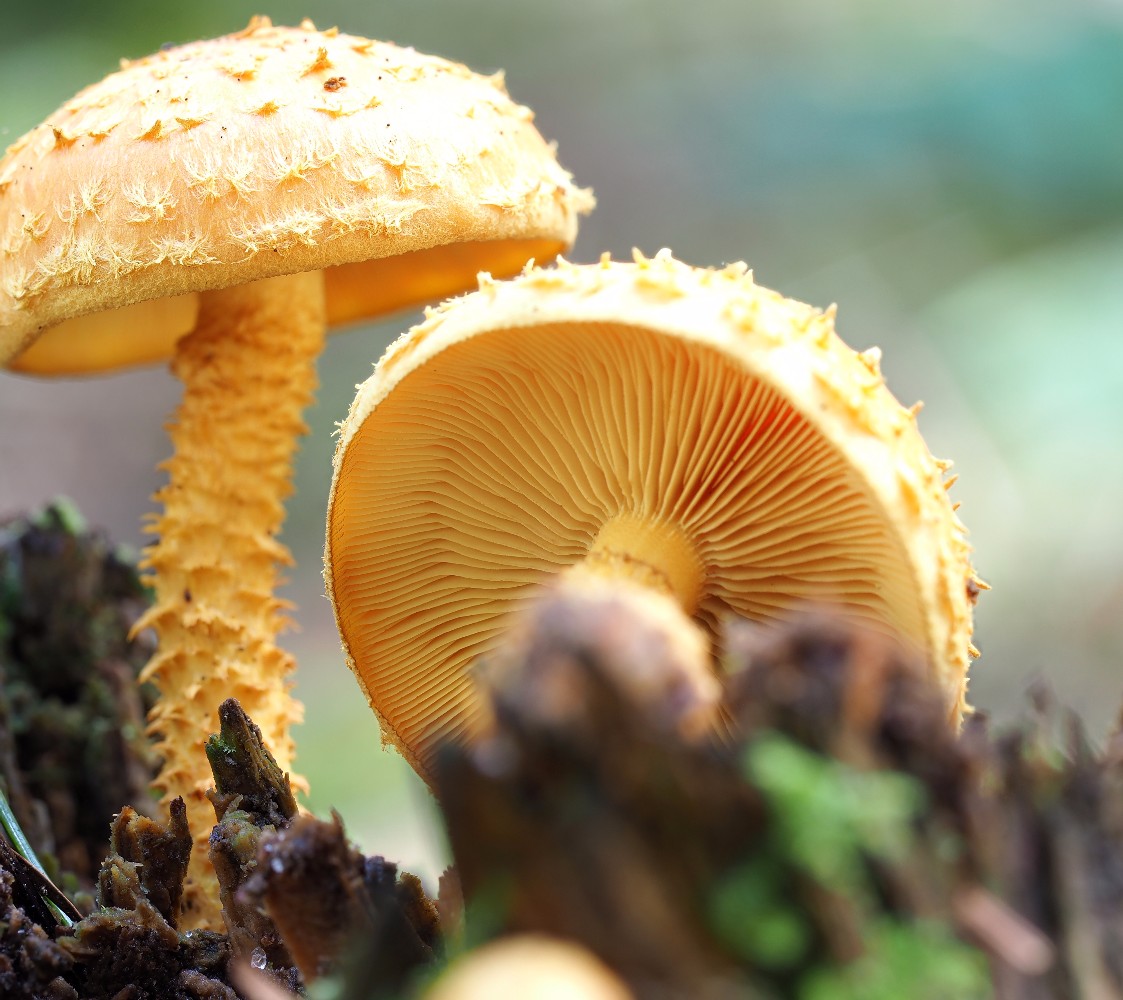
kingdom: Fungi
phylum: Basidiomycota
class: Agaricomycetes
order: Agaricales
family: Strophariaceae
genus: Pholiota
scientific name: Pholiota flammans
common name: flamme-skælhat
